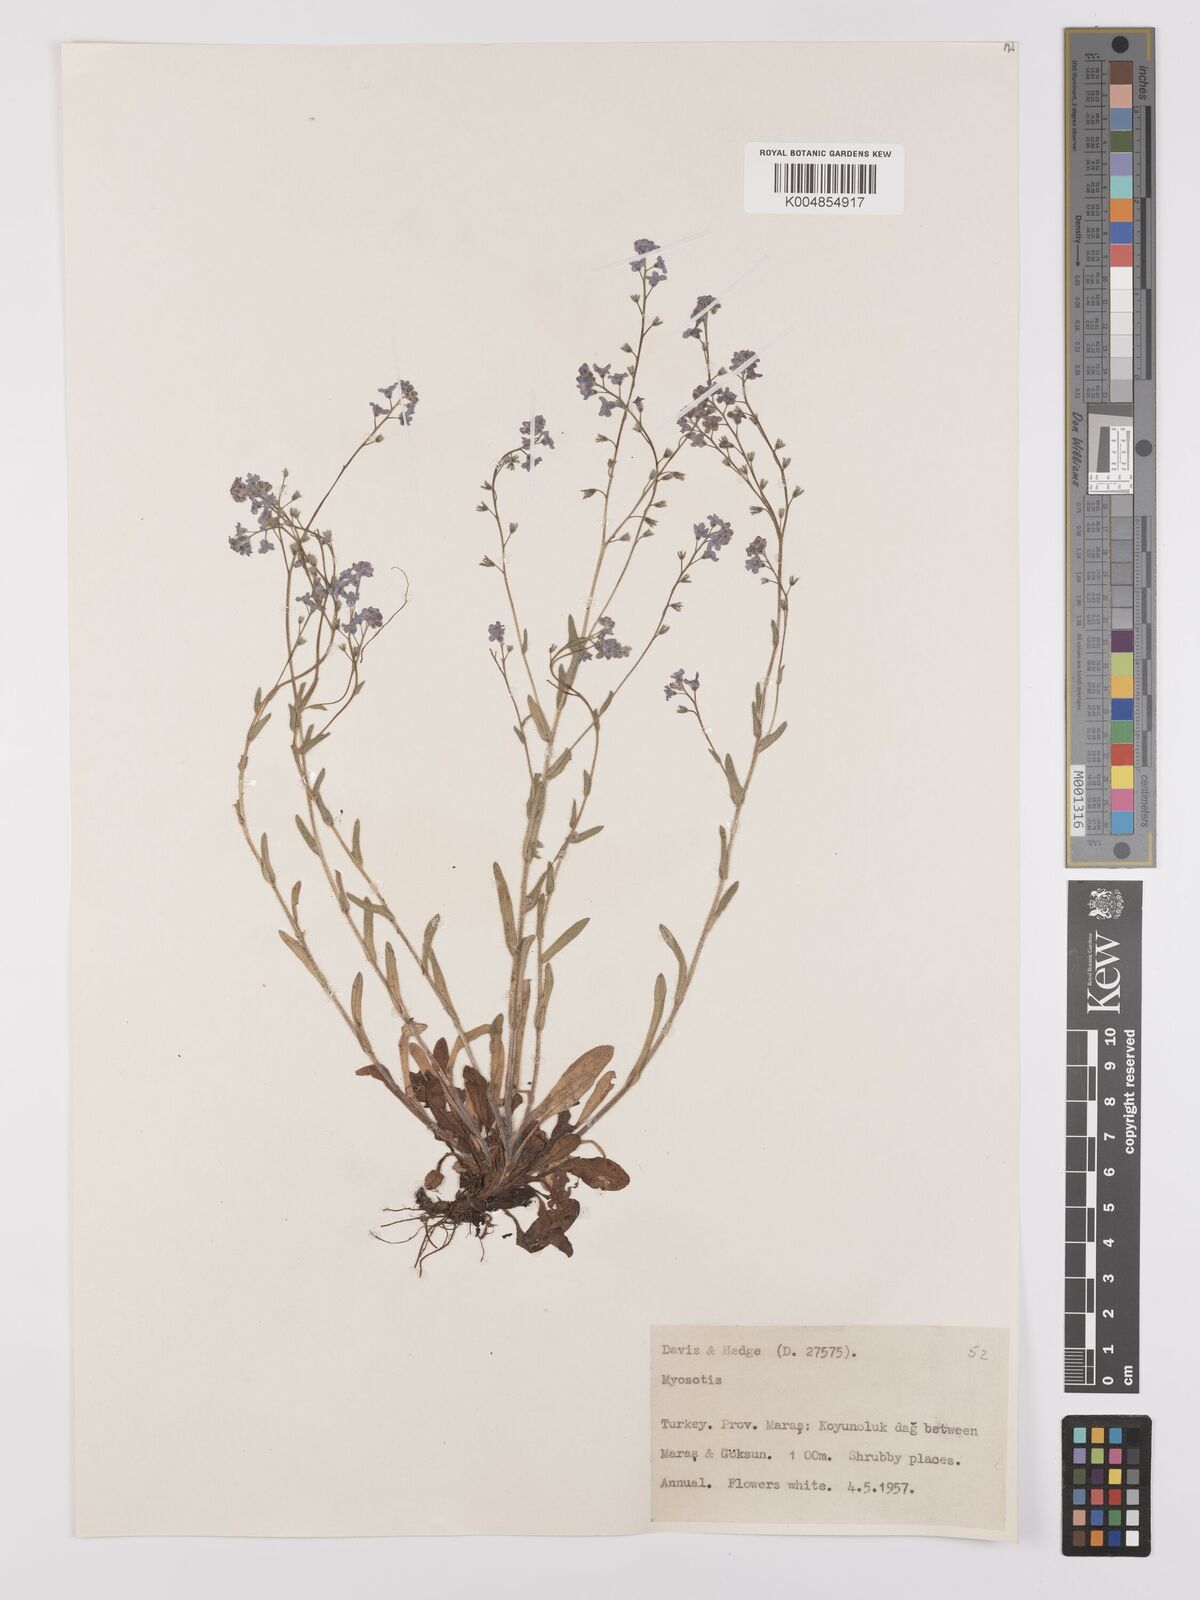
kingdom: Plantae
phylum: Tracheophyta
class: Magnoliopsida
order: Boraginales
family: Boraginaceae
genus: Myosotis
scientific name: Myosotis
